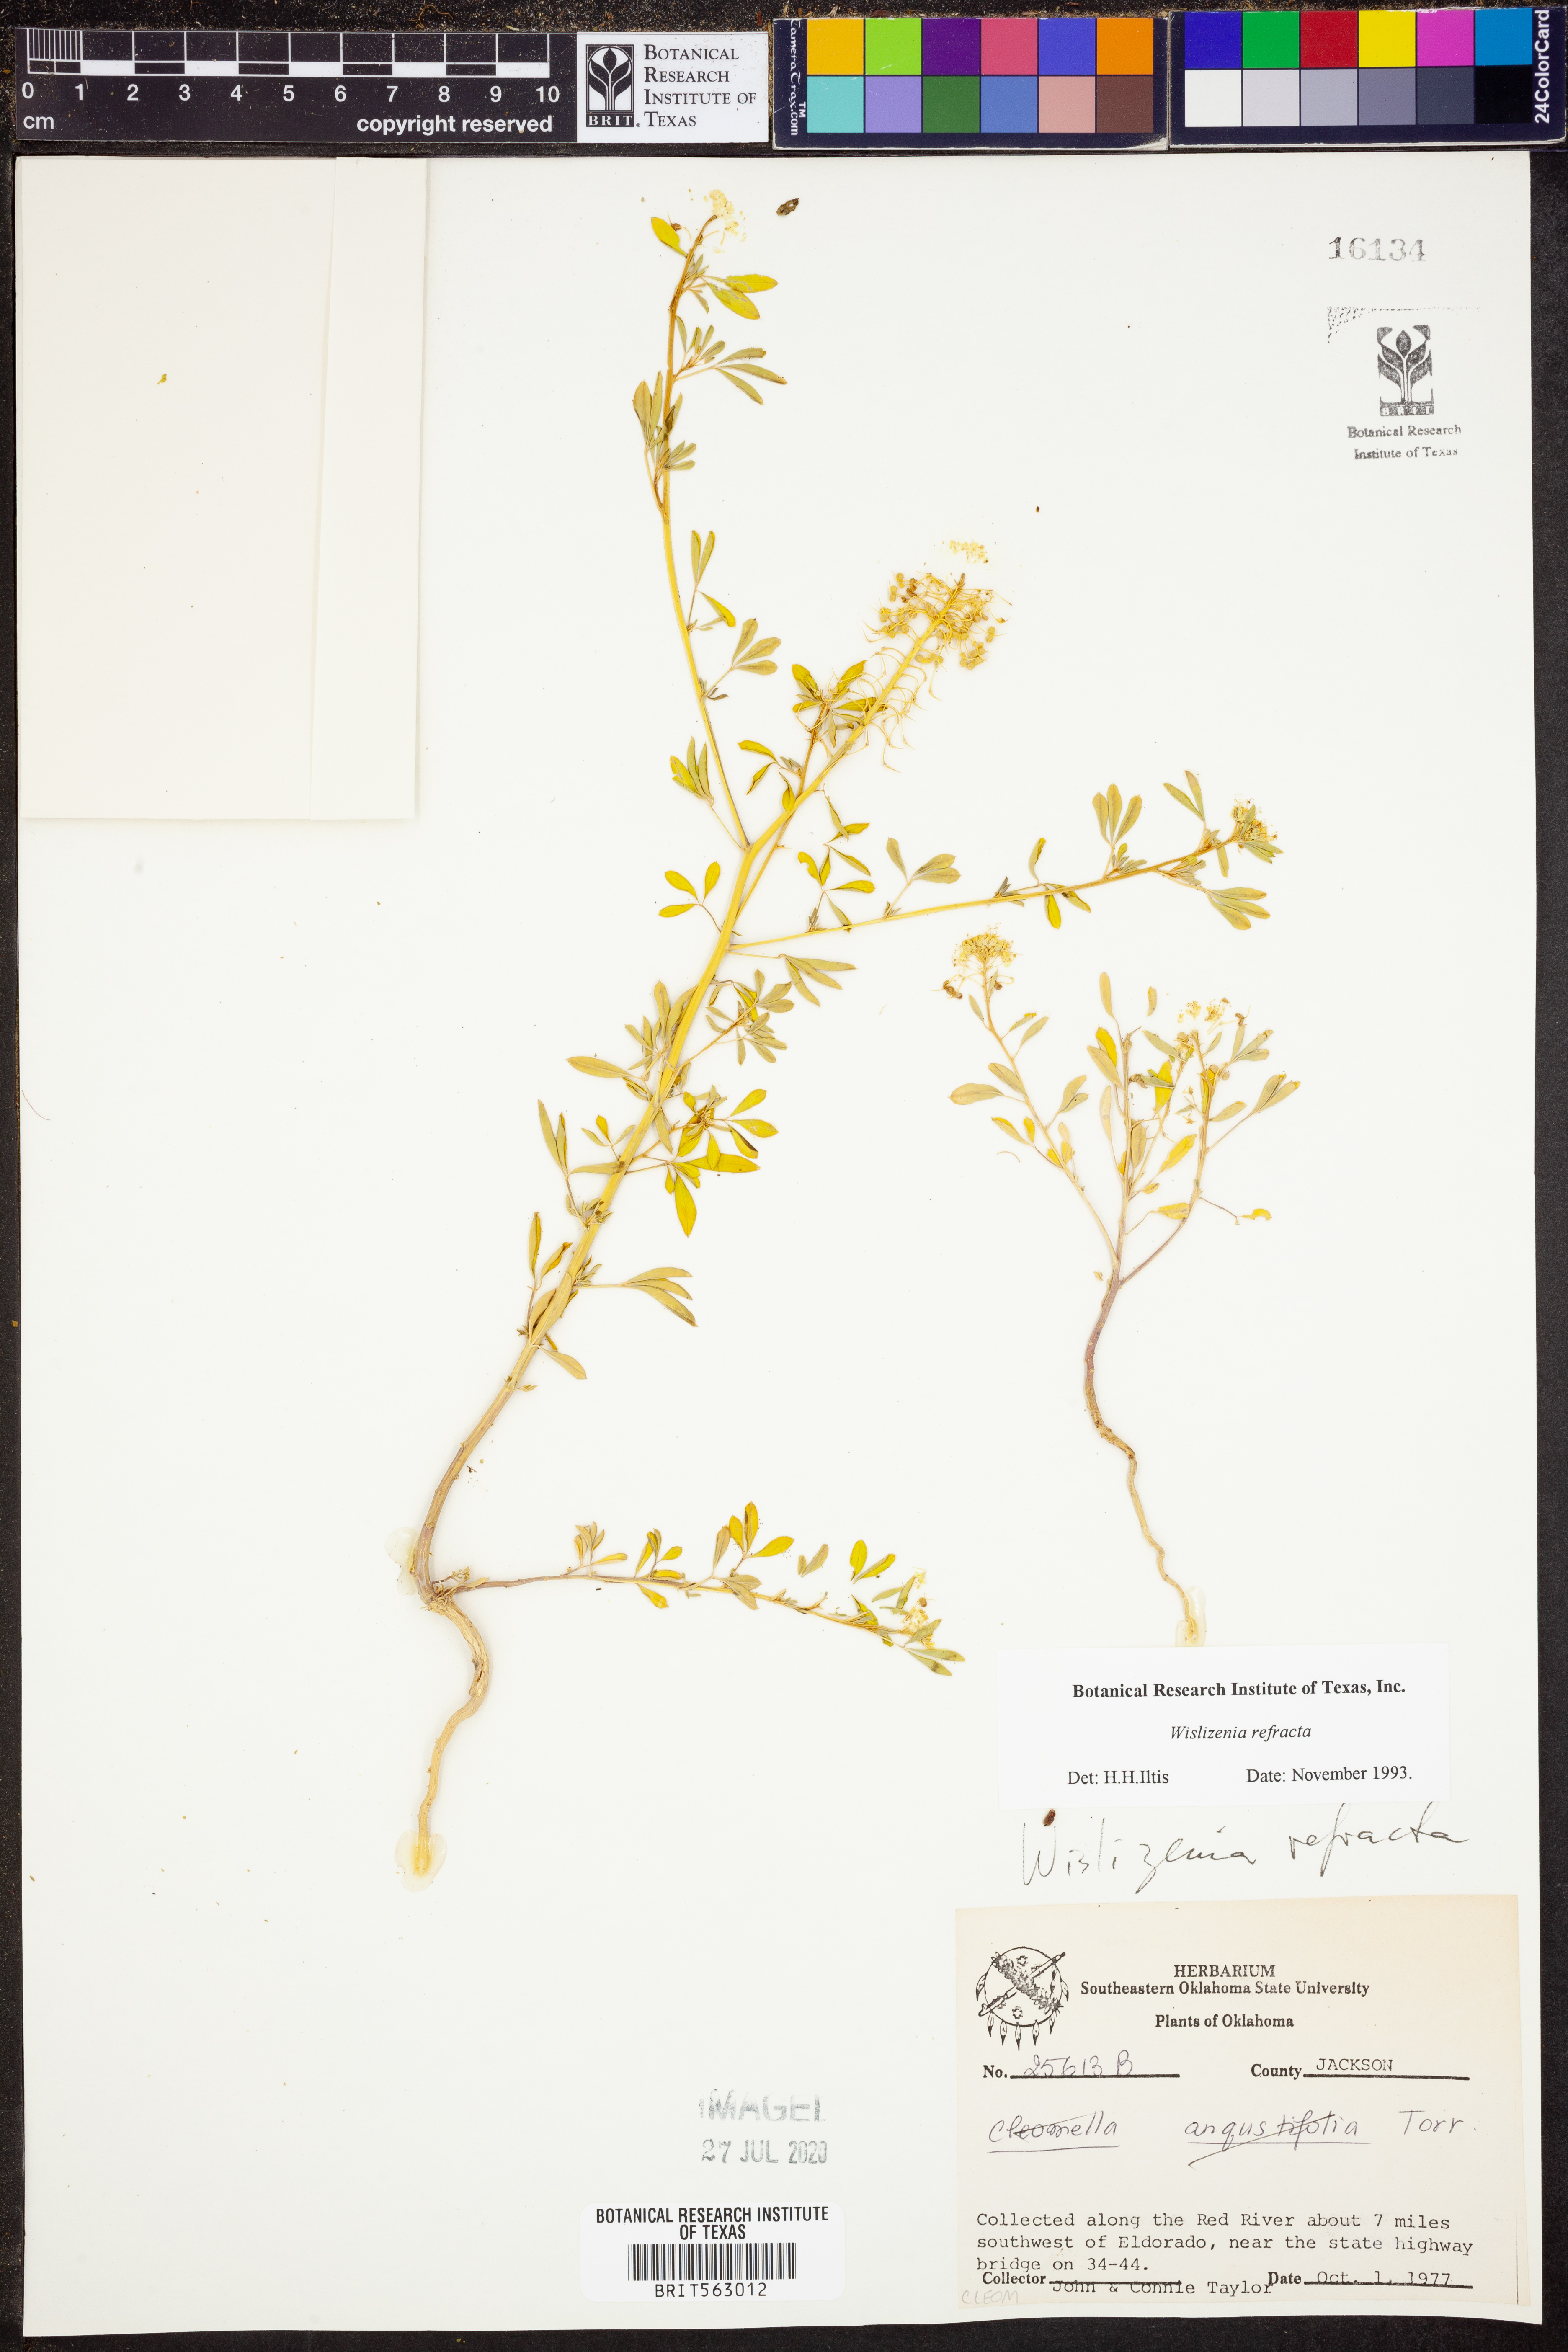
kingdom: Plantae
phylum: Tracheophyta
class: Magnoliopsida
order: Brassicales
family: Cleomaceae
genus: Cleomella
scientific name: Cleomella refracta
